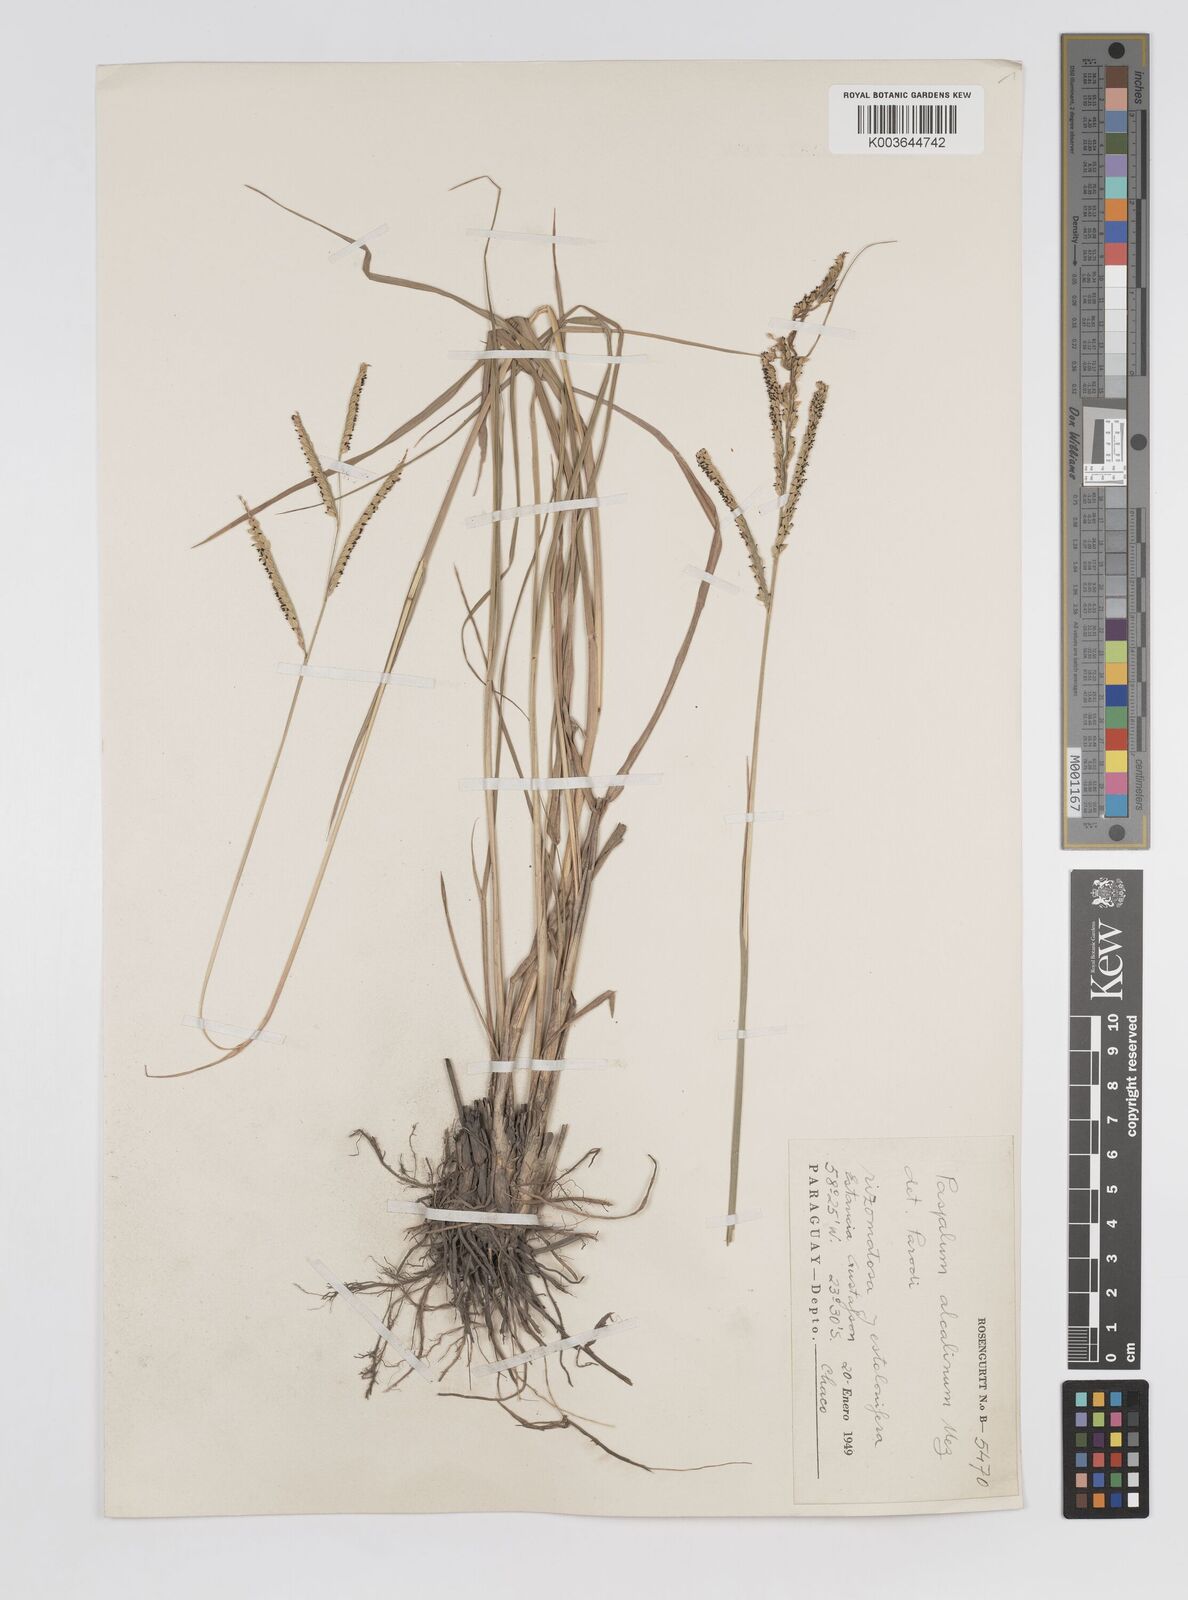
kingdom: Plantae
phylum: Tracheophyta
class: Liliopsida
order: Poales
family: Poaceae
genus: Paspalum
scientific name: Paspalum alcalinum
